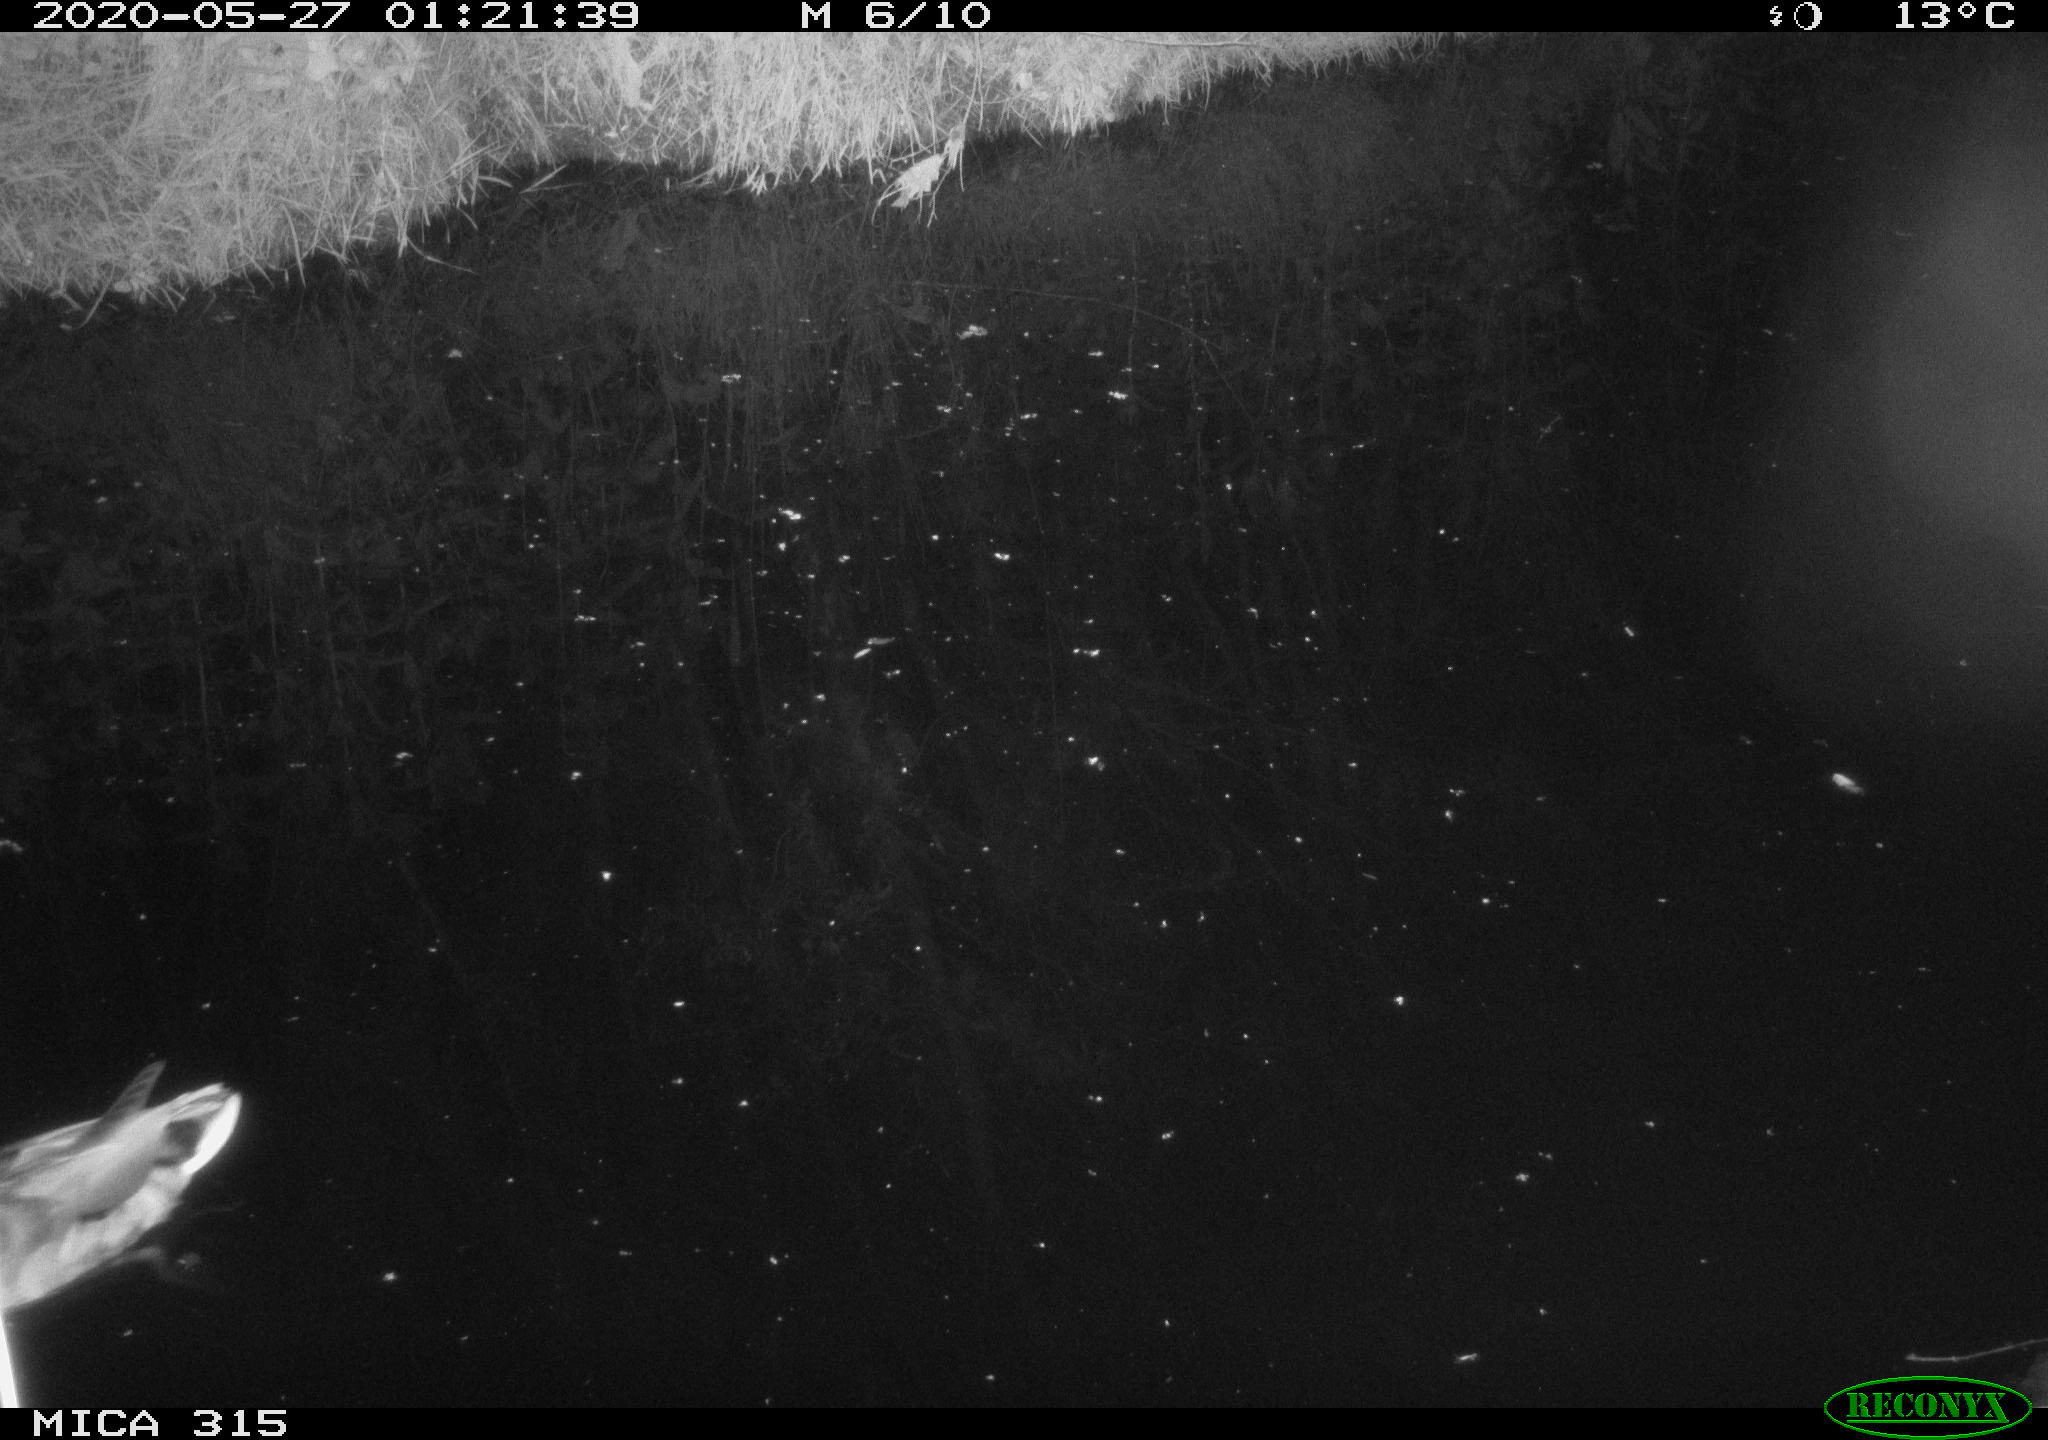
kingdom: Animalia
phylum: Chordata
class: Aves
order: Anseriformes
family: Anatidae
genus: Anas
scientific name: Anas platyrhynchos
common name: Mallard
